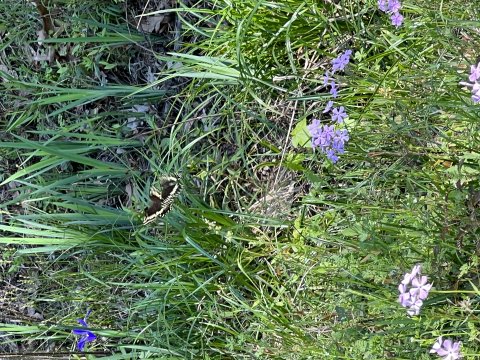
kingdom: Animalia
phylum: Arthropoda
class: Insecta
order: Lepidoptera
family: Papilionidae
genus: Pterourus
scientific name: Pterourus palamedes
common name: Palamedes Swallowtail
